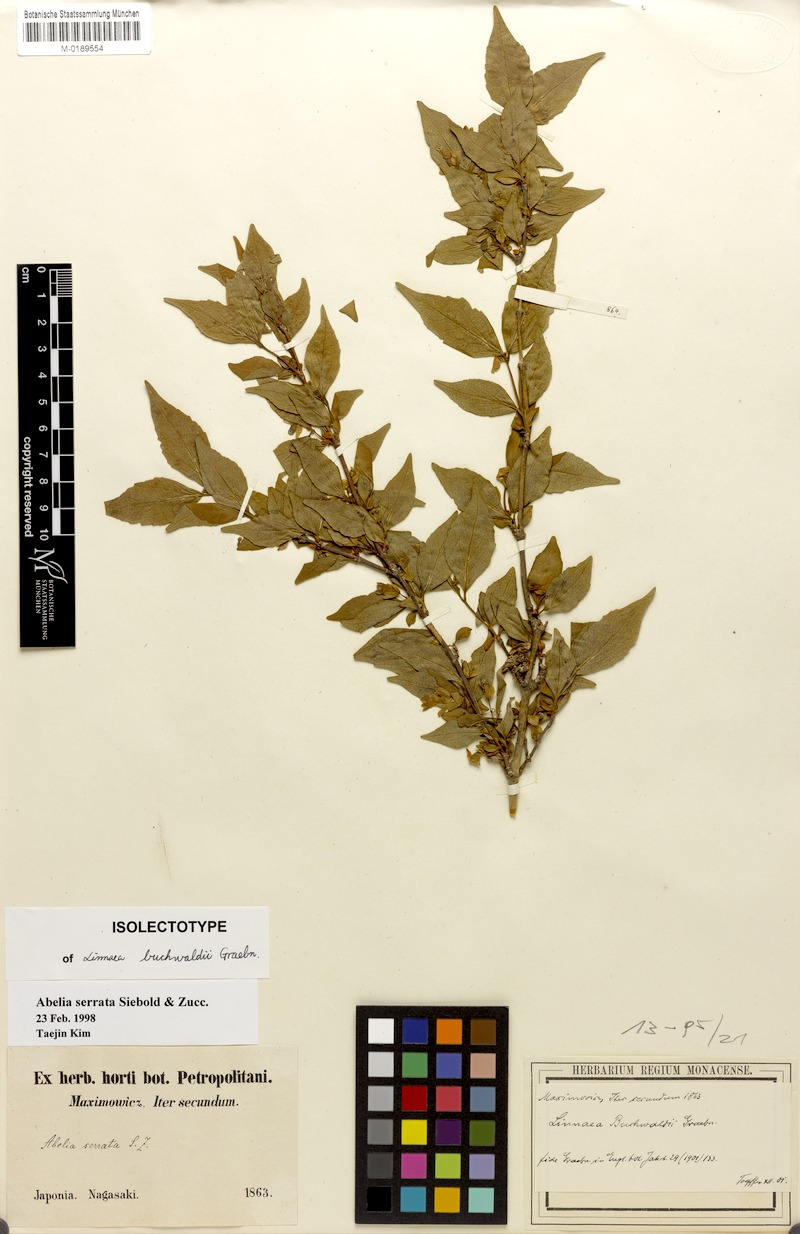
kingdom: Plantae
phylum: Tracheophyta
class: Magnoliopsida
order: Dipsacales
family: Caprifoliaceae
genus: Diabelia
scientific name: Diabelia serrata
